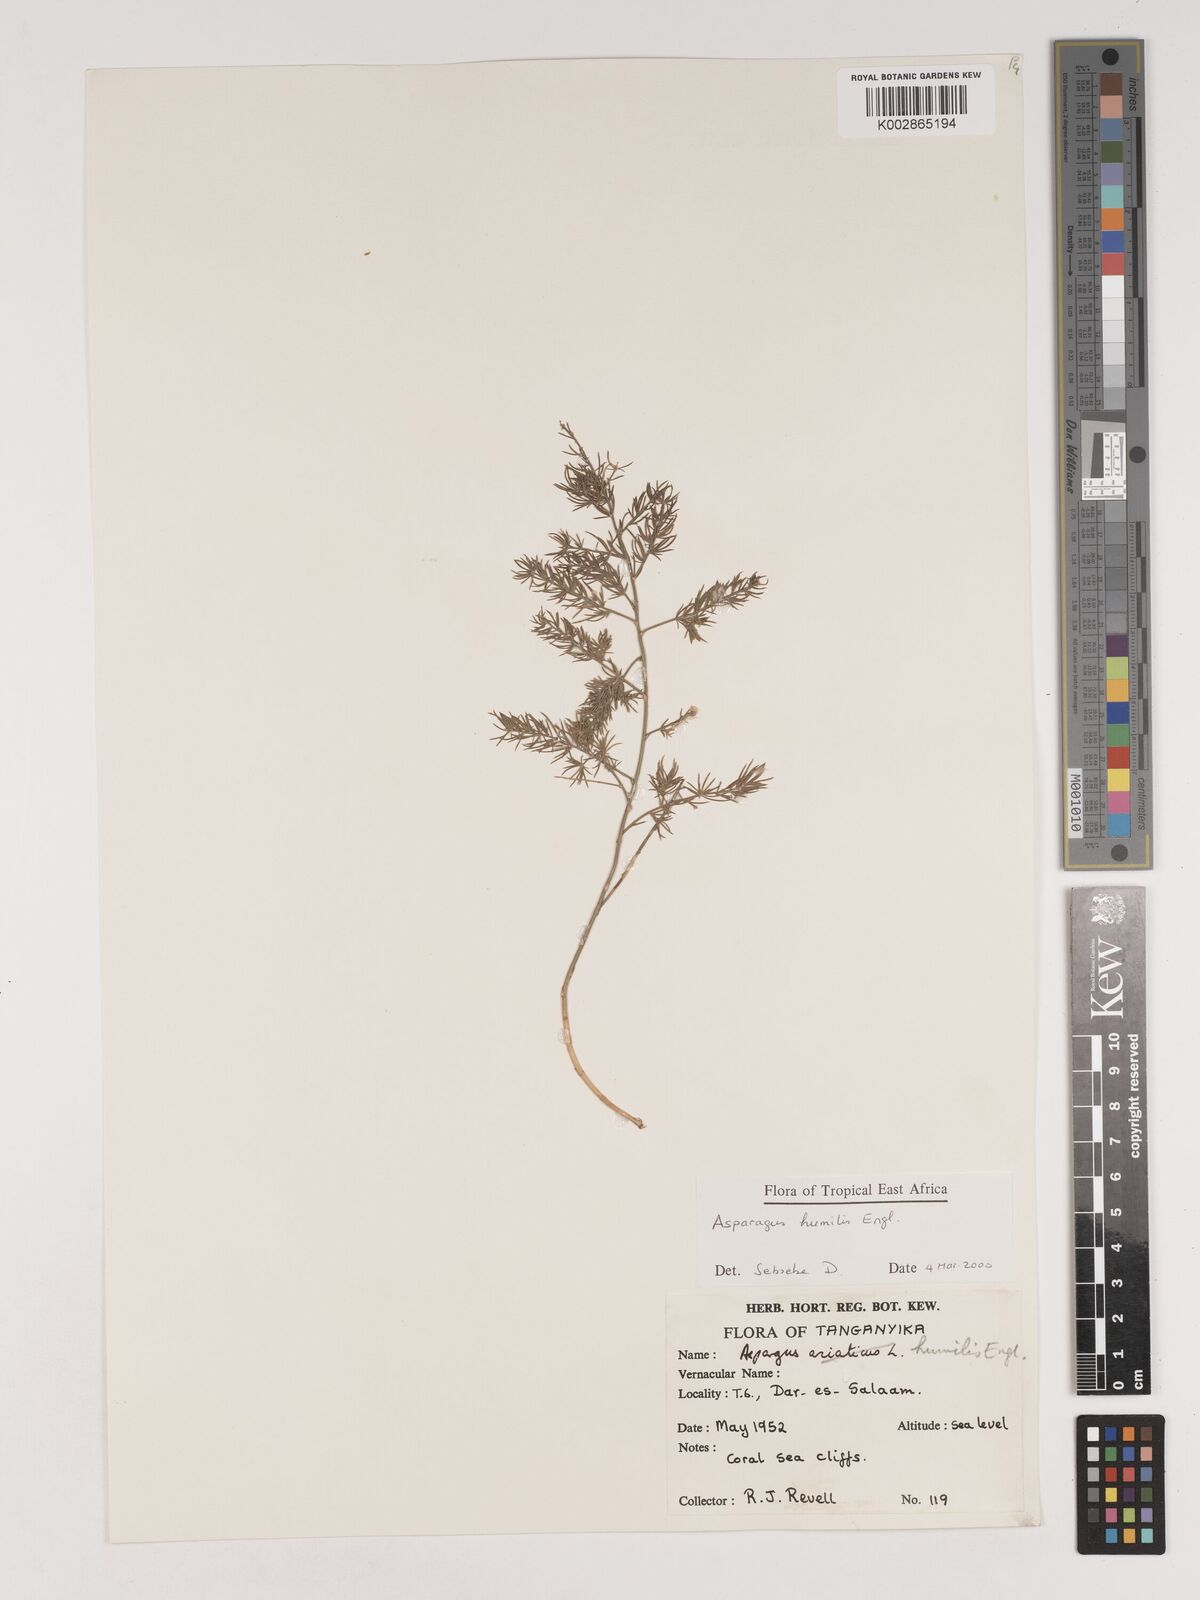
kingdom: Plantae
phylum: Tracheophyta
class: Liliopsida
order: Asparagales
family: Asparagaceae
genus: Asparagus
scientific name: Asparagus asparagoides
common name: African asparagus fern
